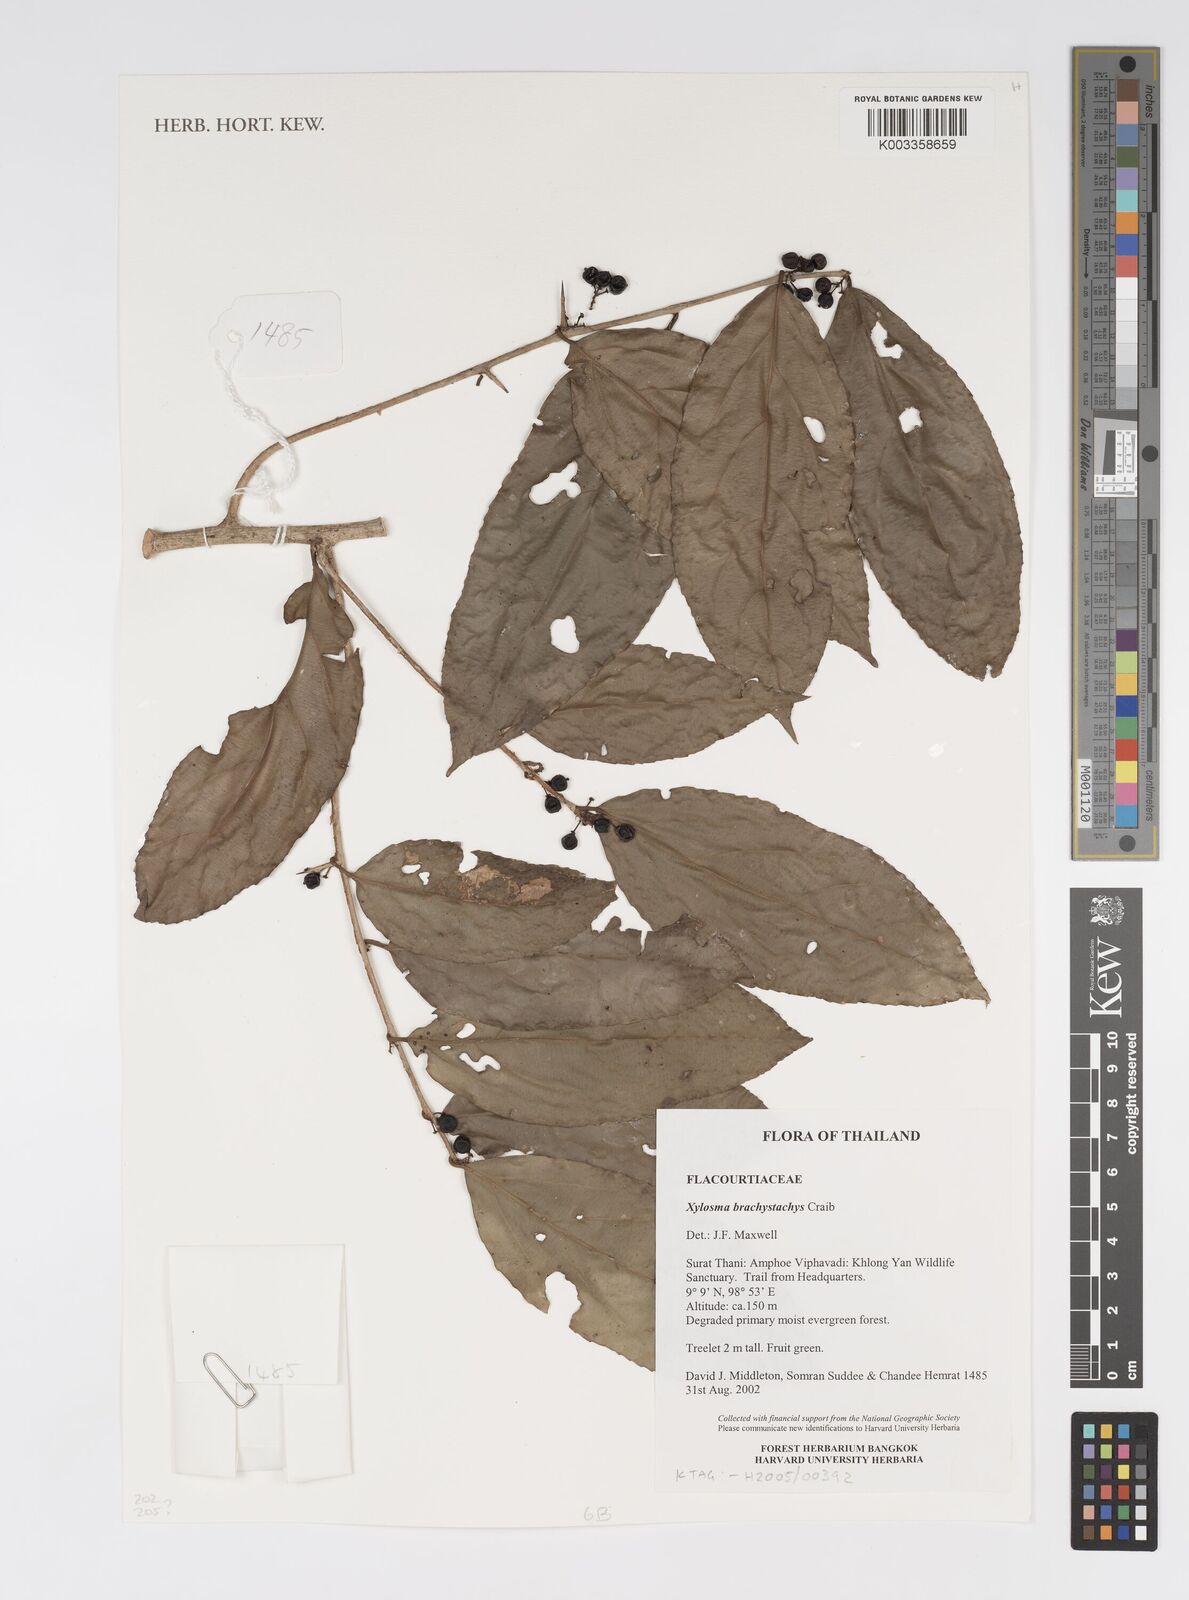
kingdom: Plantae
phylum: Tracheophyta
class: Magnoliopsida
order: Malpighiales
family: Salicaceae
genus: Xylosma
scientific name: Xylosma brachystachys
